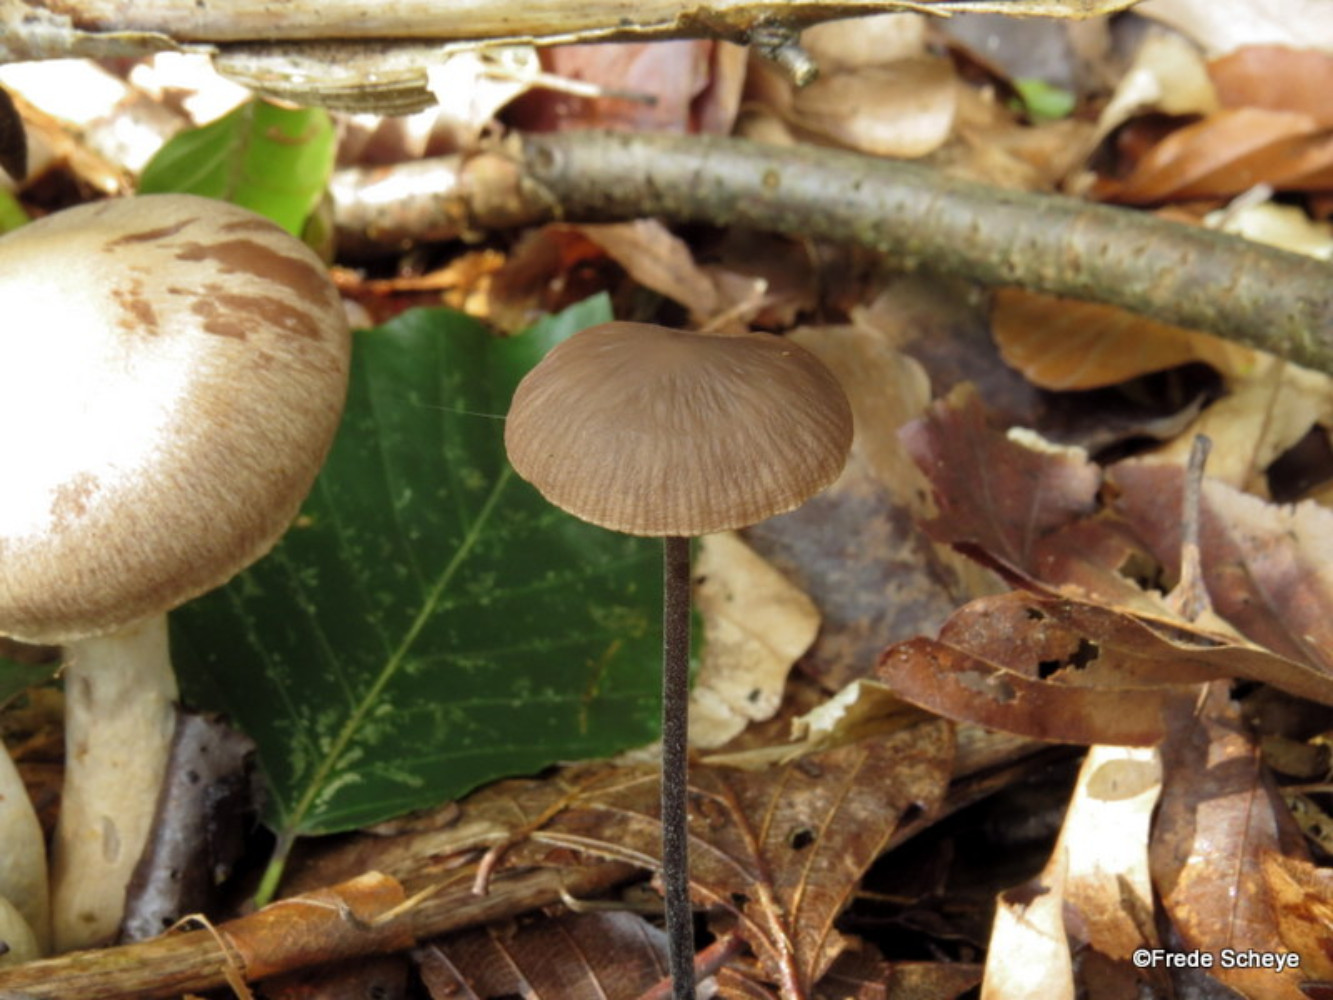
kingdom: Fungi
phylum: Basidiomycota
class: Agaricomycetes
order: Agaricales
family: Omphalotaceae
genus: Mycetinis
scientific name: Mycetinis alliaceus
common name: stor løghat
